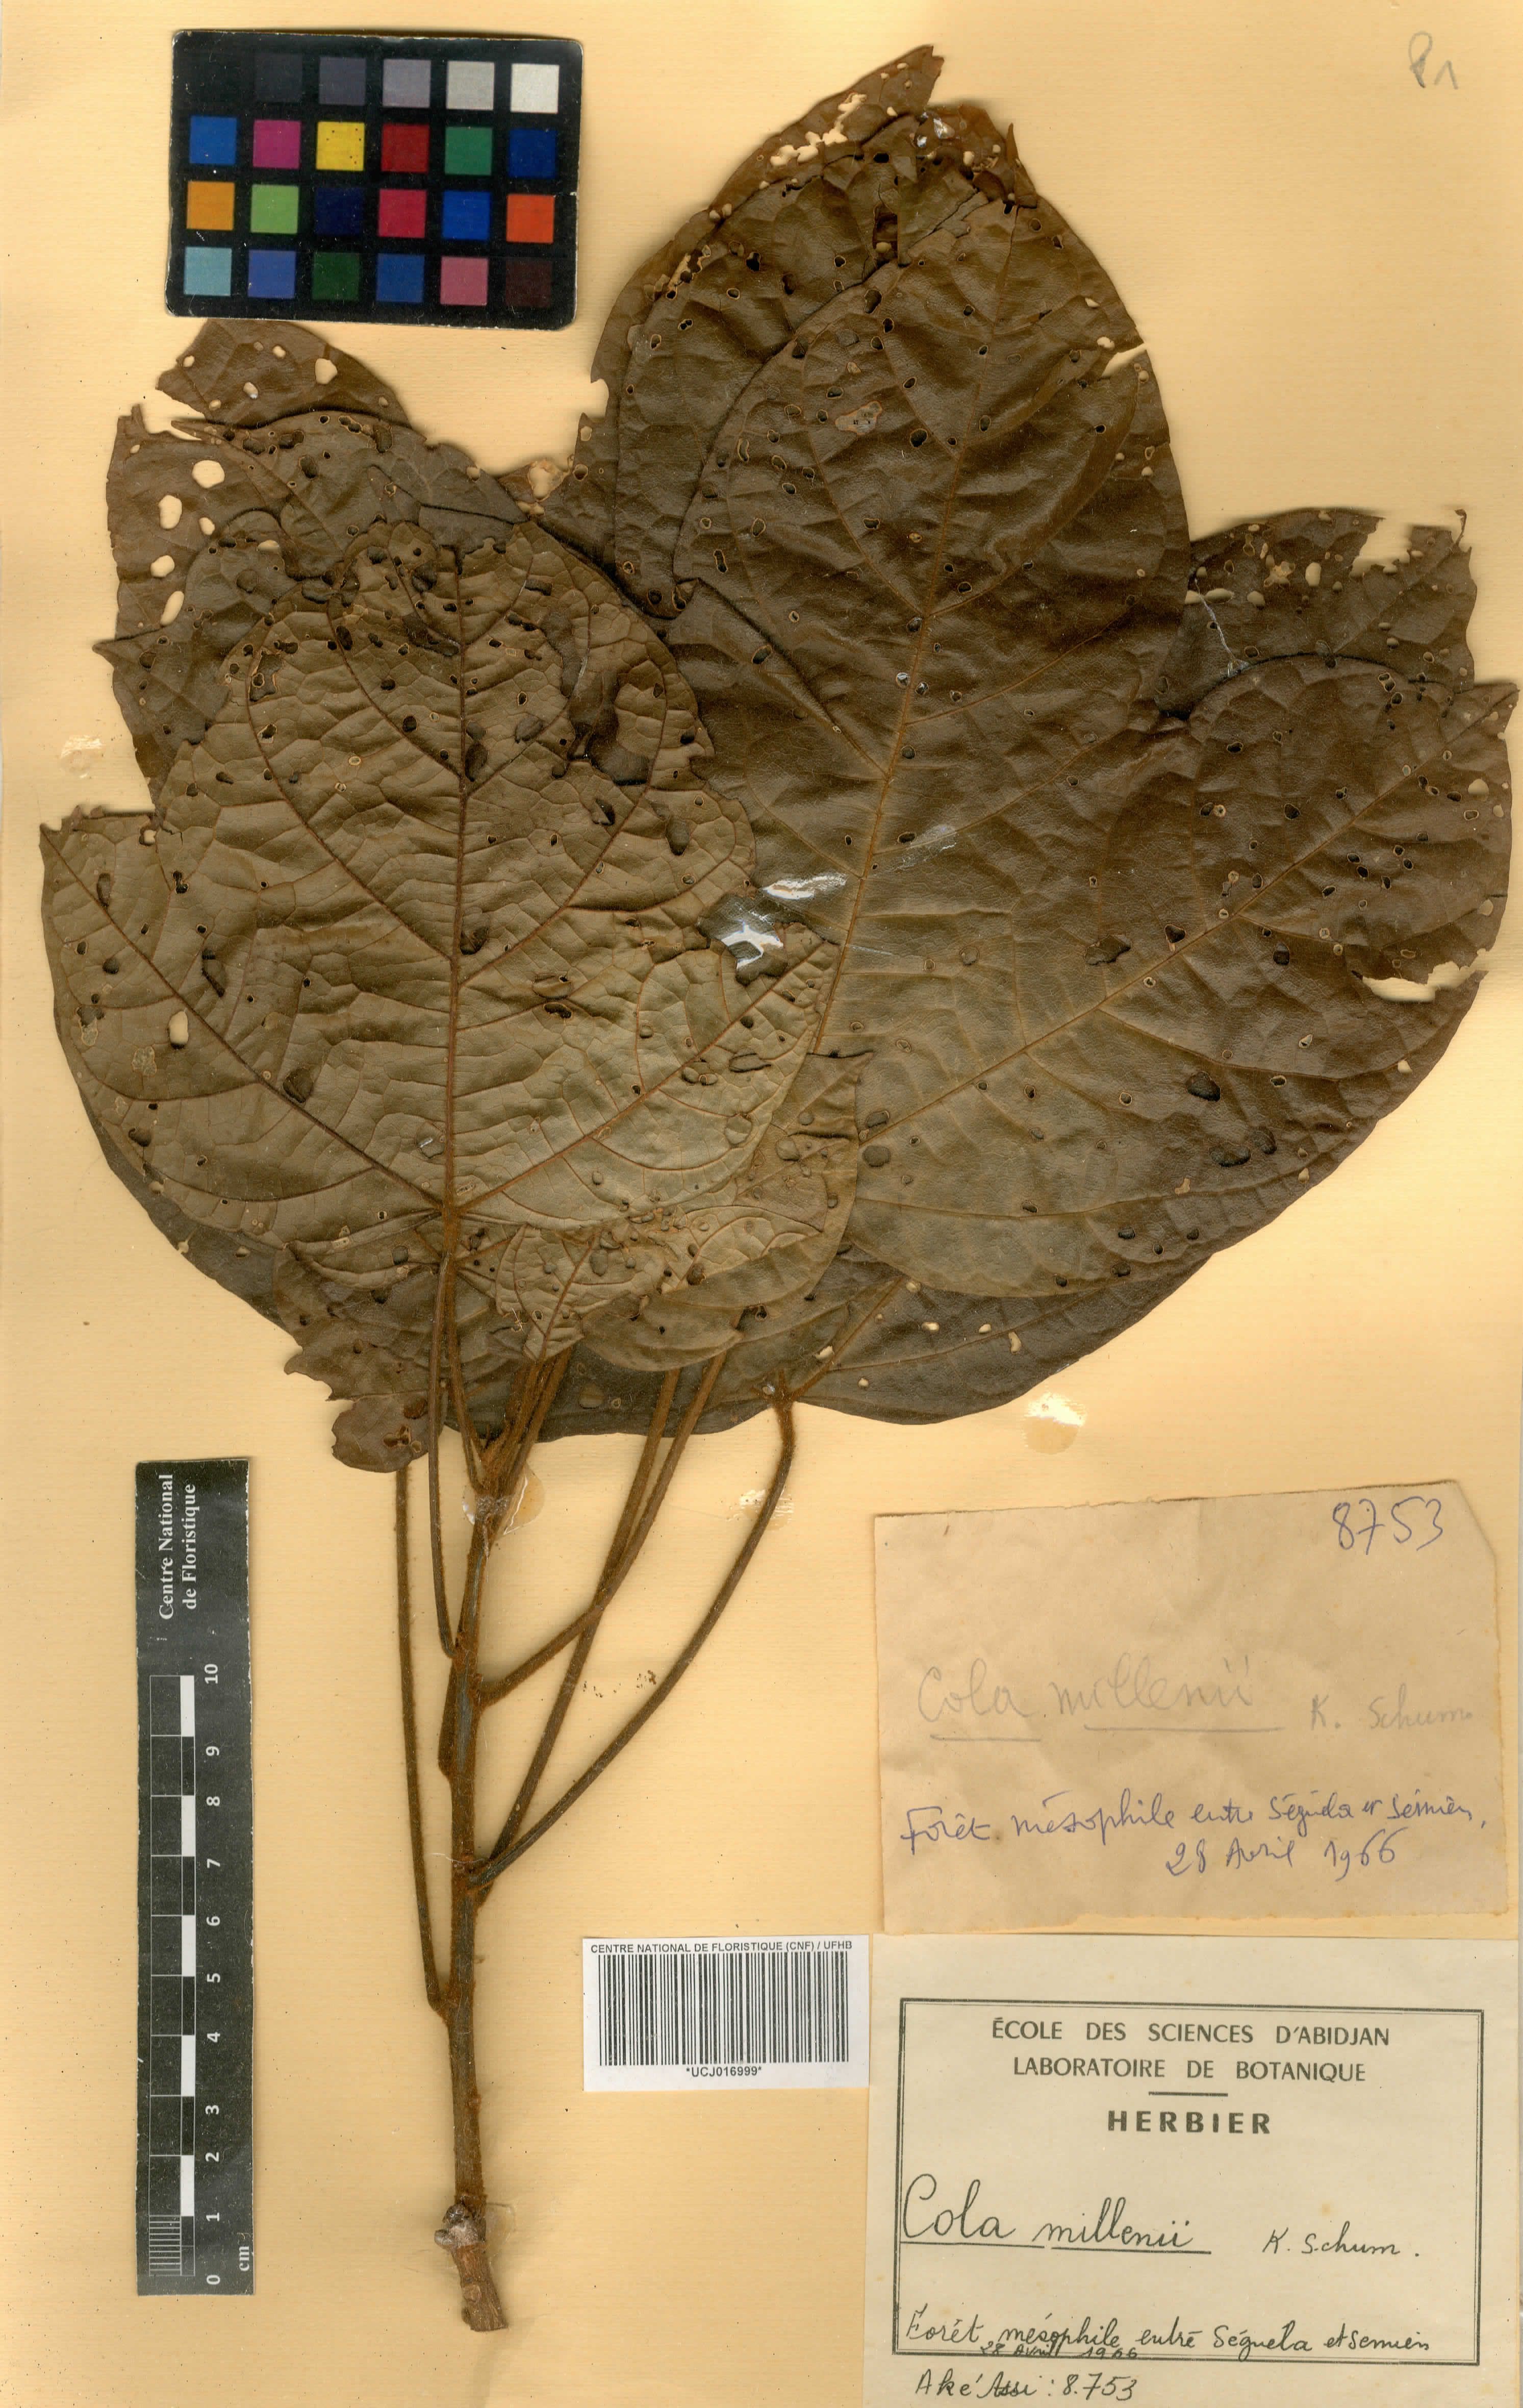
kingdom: Plantae
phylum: Tracheophyta
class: Magnoliopsida
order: Malvales
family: Malvaceae
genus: Cola
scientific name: Cola millenii
